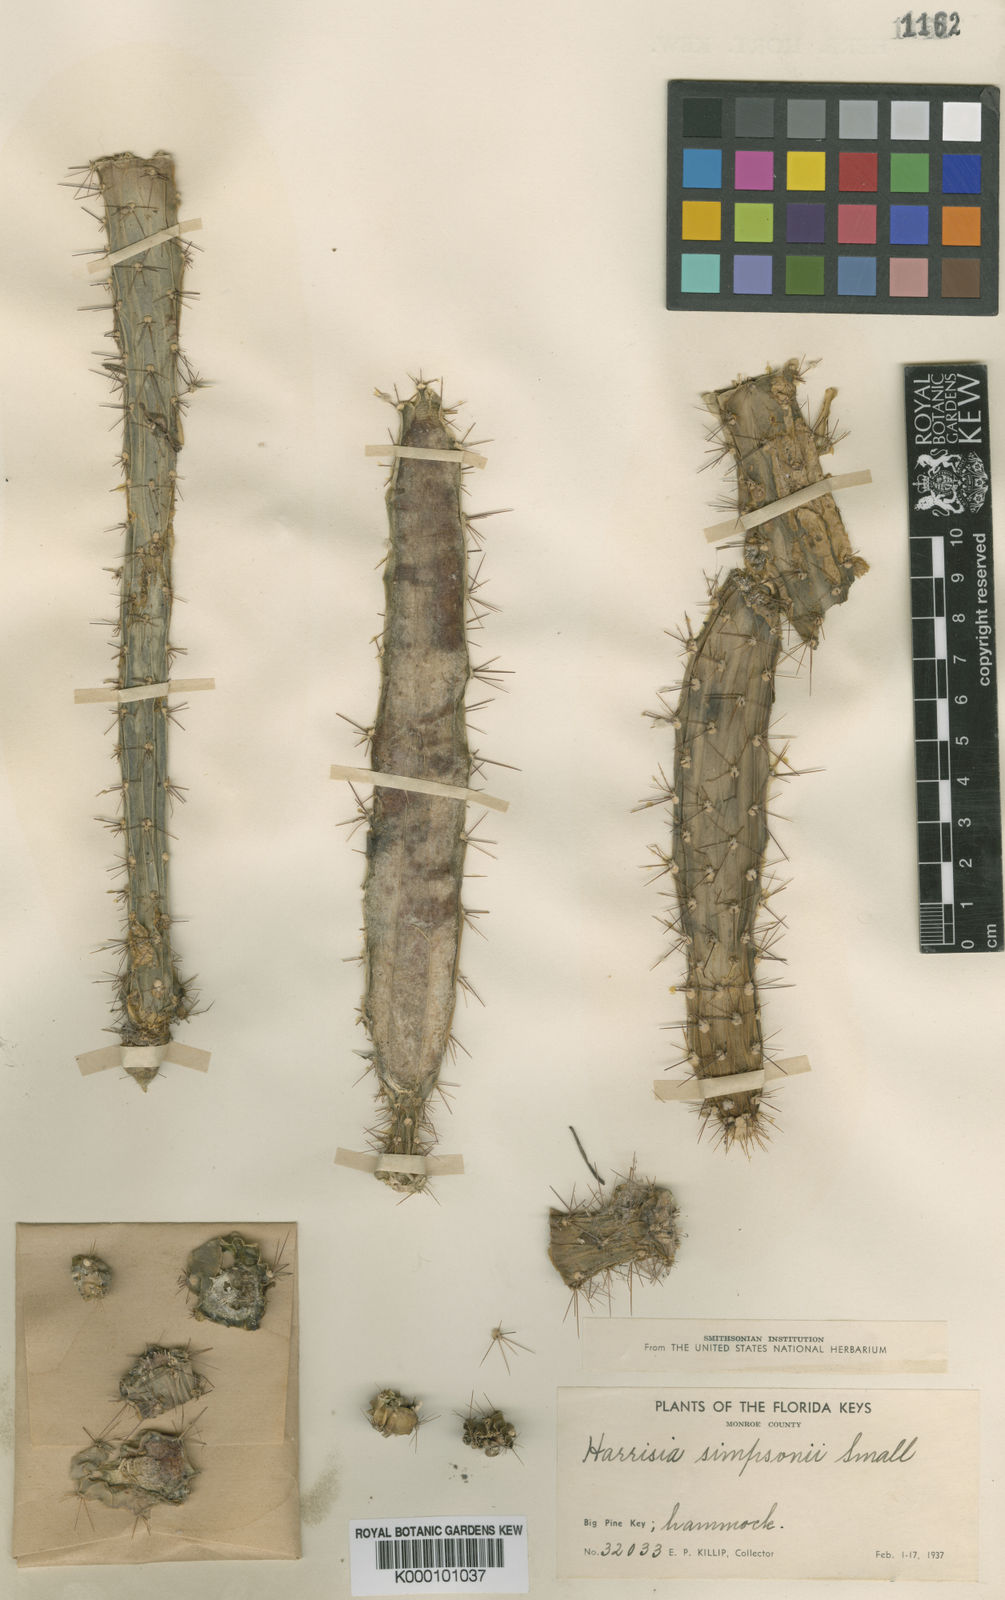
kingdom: Plantae
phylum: Tracheophyta
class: Magnoliopsida
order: Caryophyllales
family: Cactaceae
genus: Harrisia
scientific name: Harrisia
